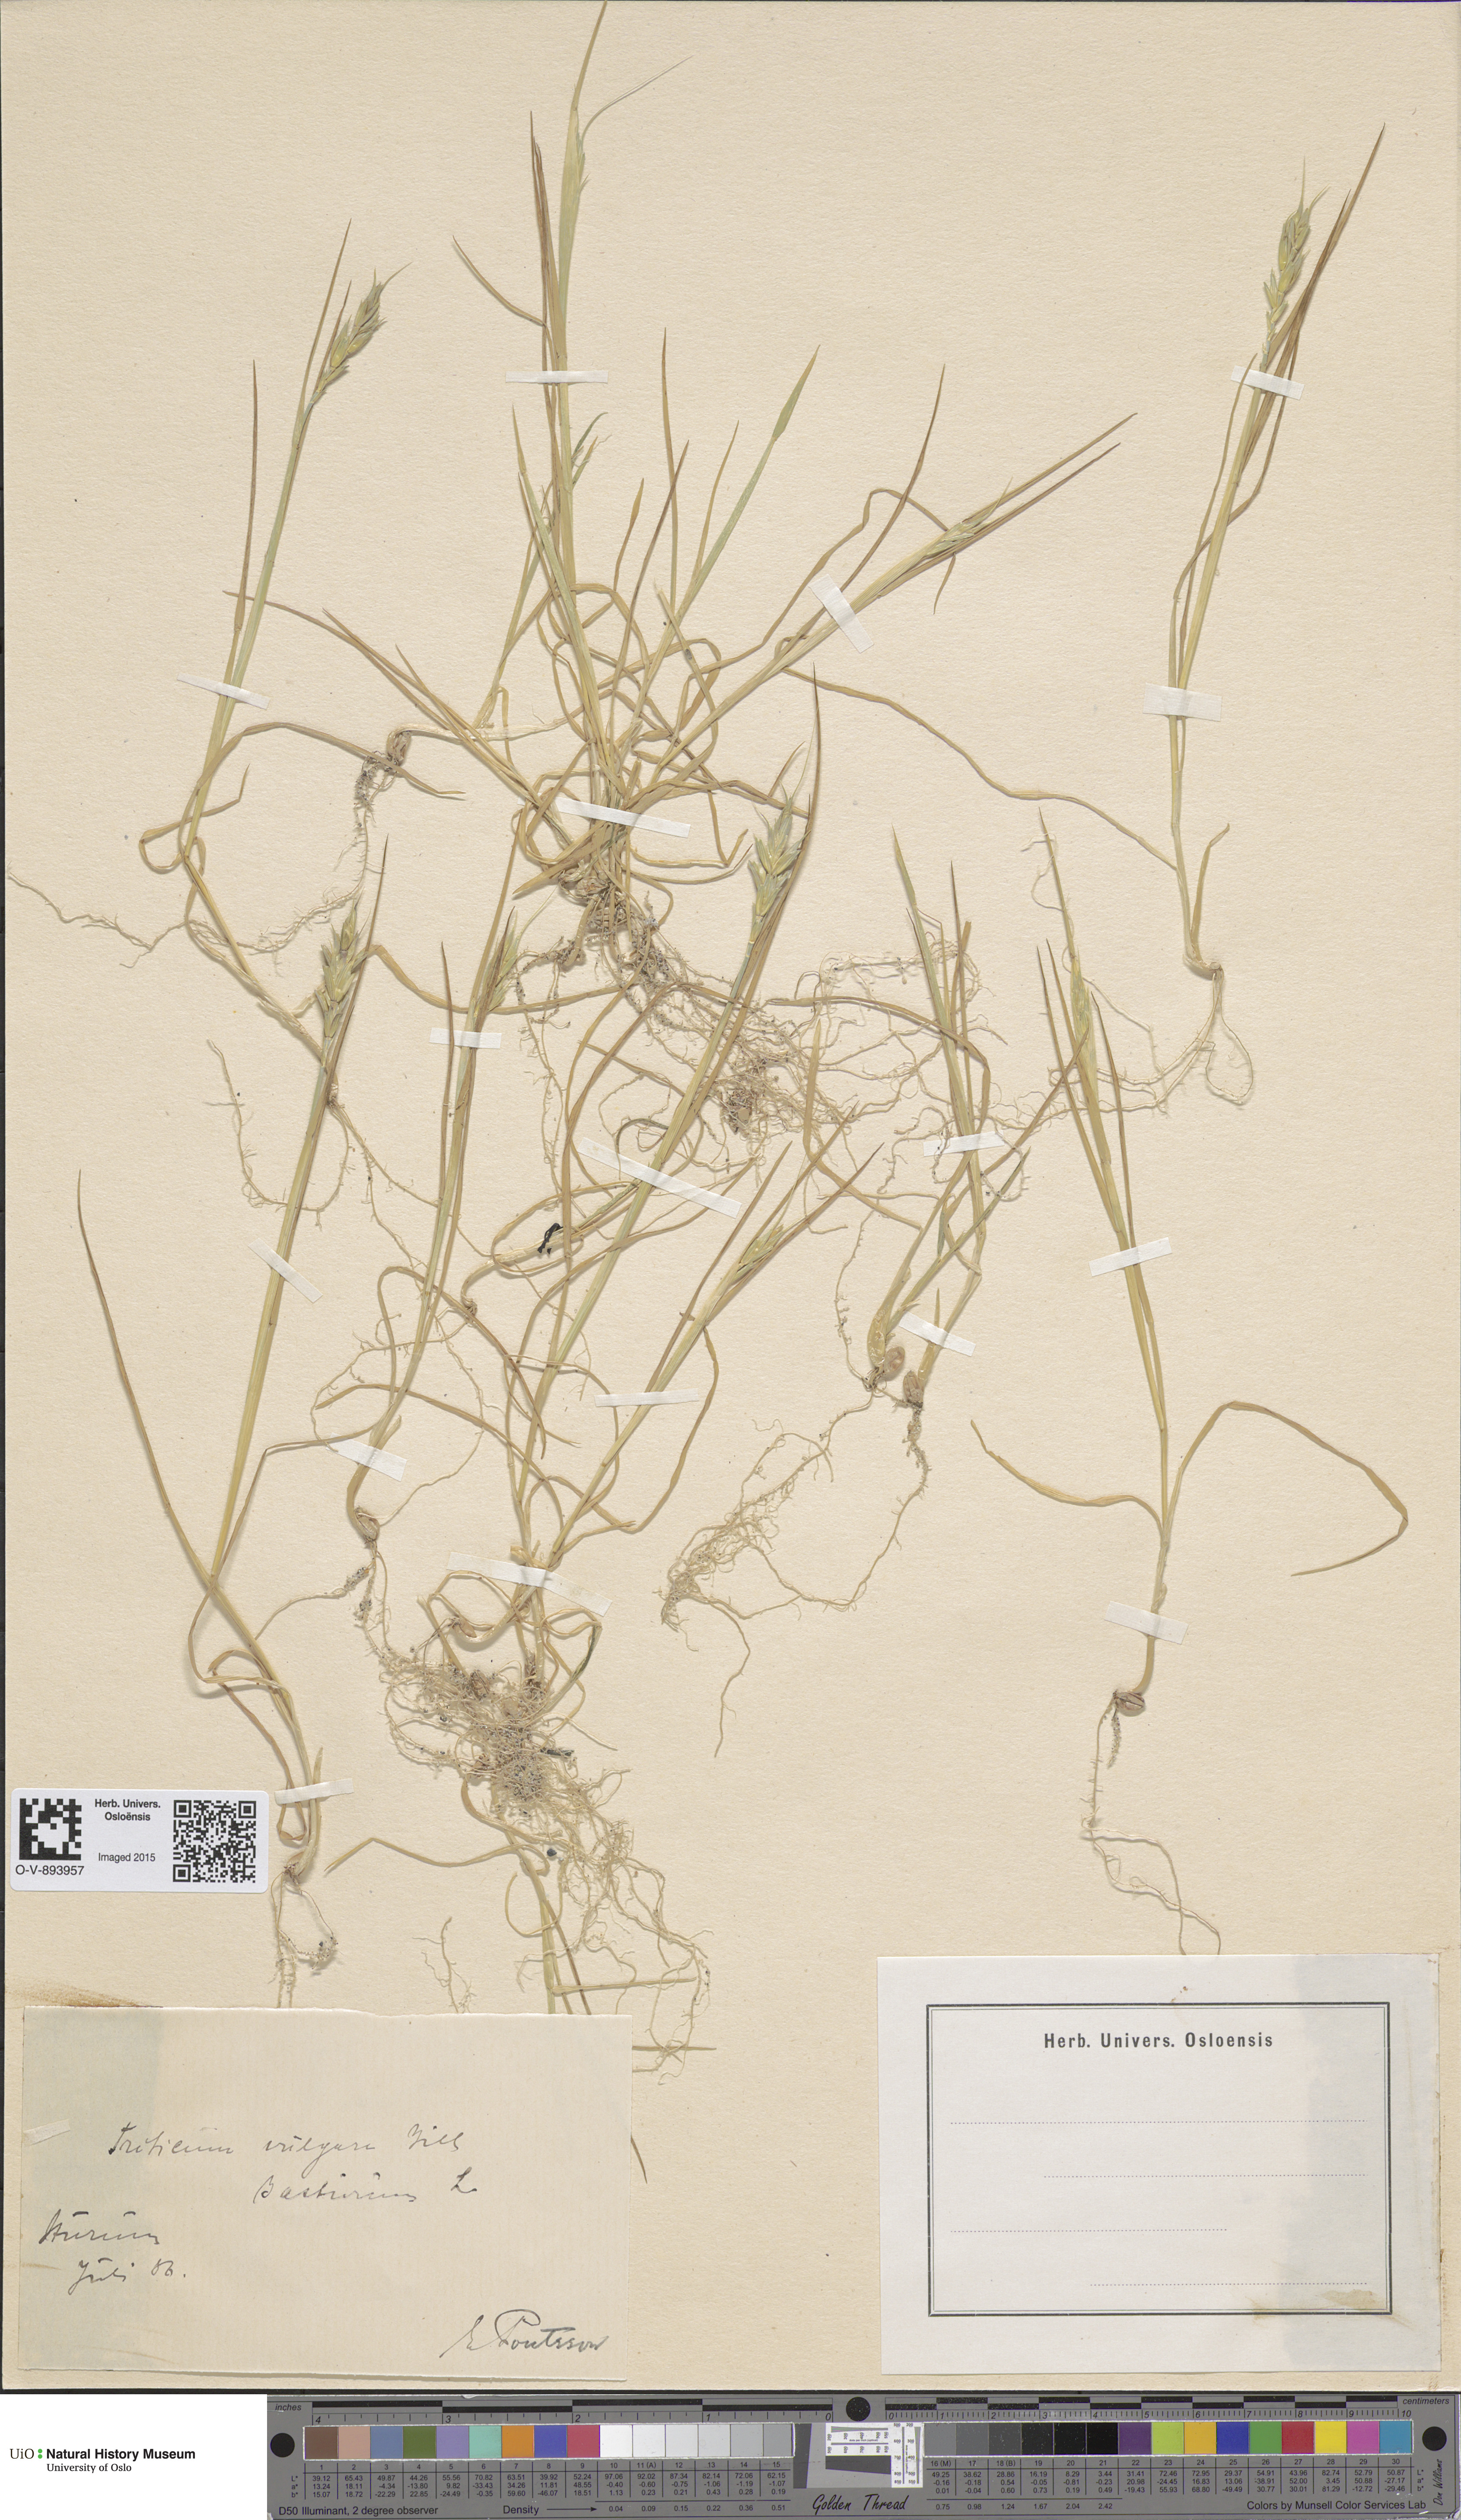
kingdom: Plantae
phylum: Tracheophyta
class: Liliopsida
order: Poales
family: Poaceae
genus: Triticum
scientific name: Triticum aestivum
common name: Common wheat
